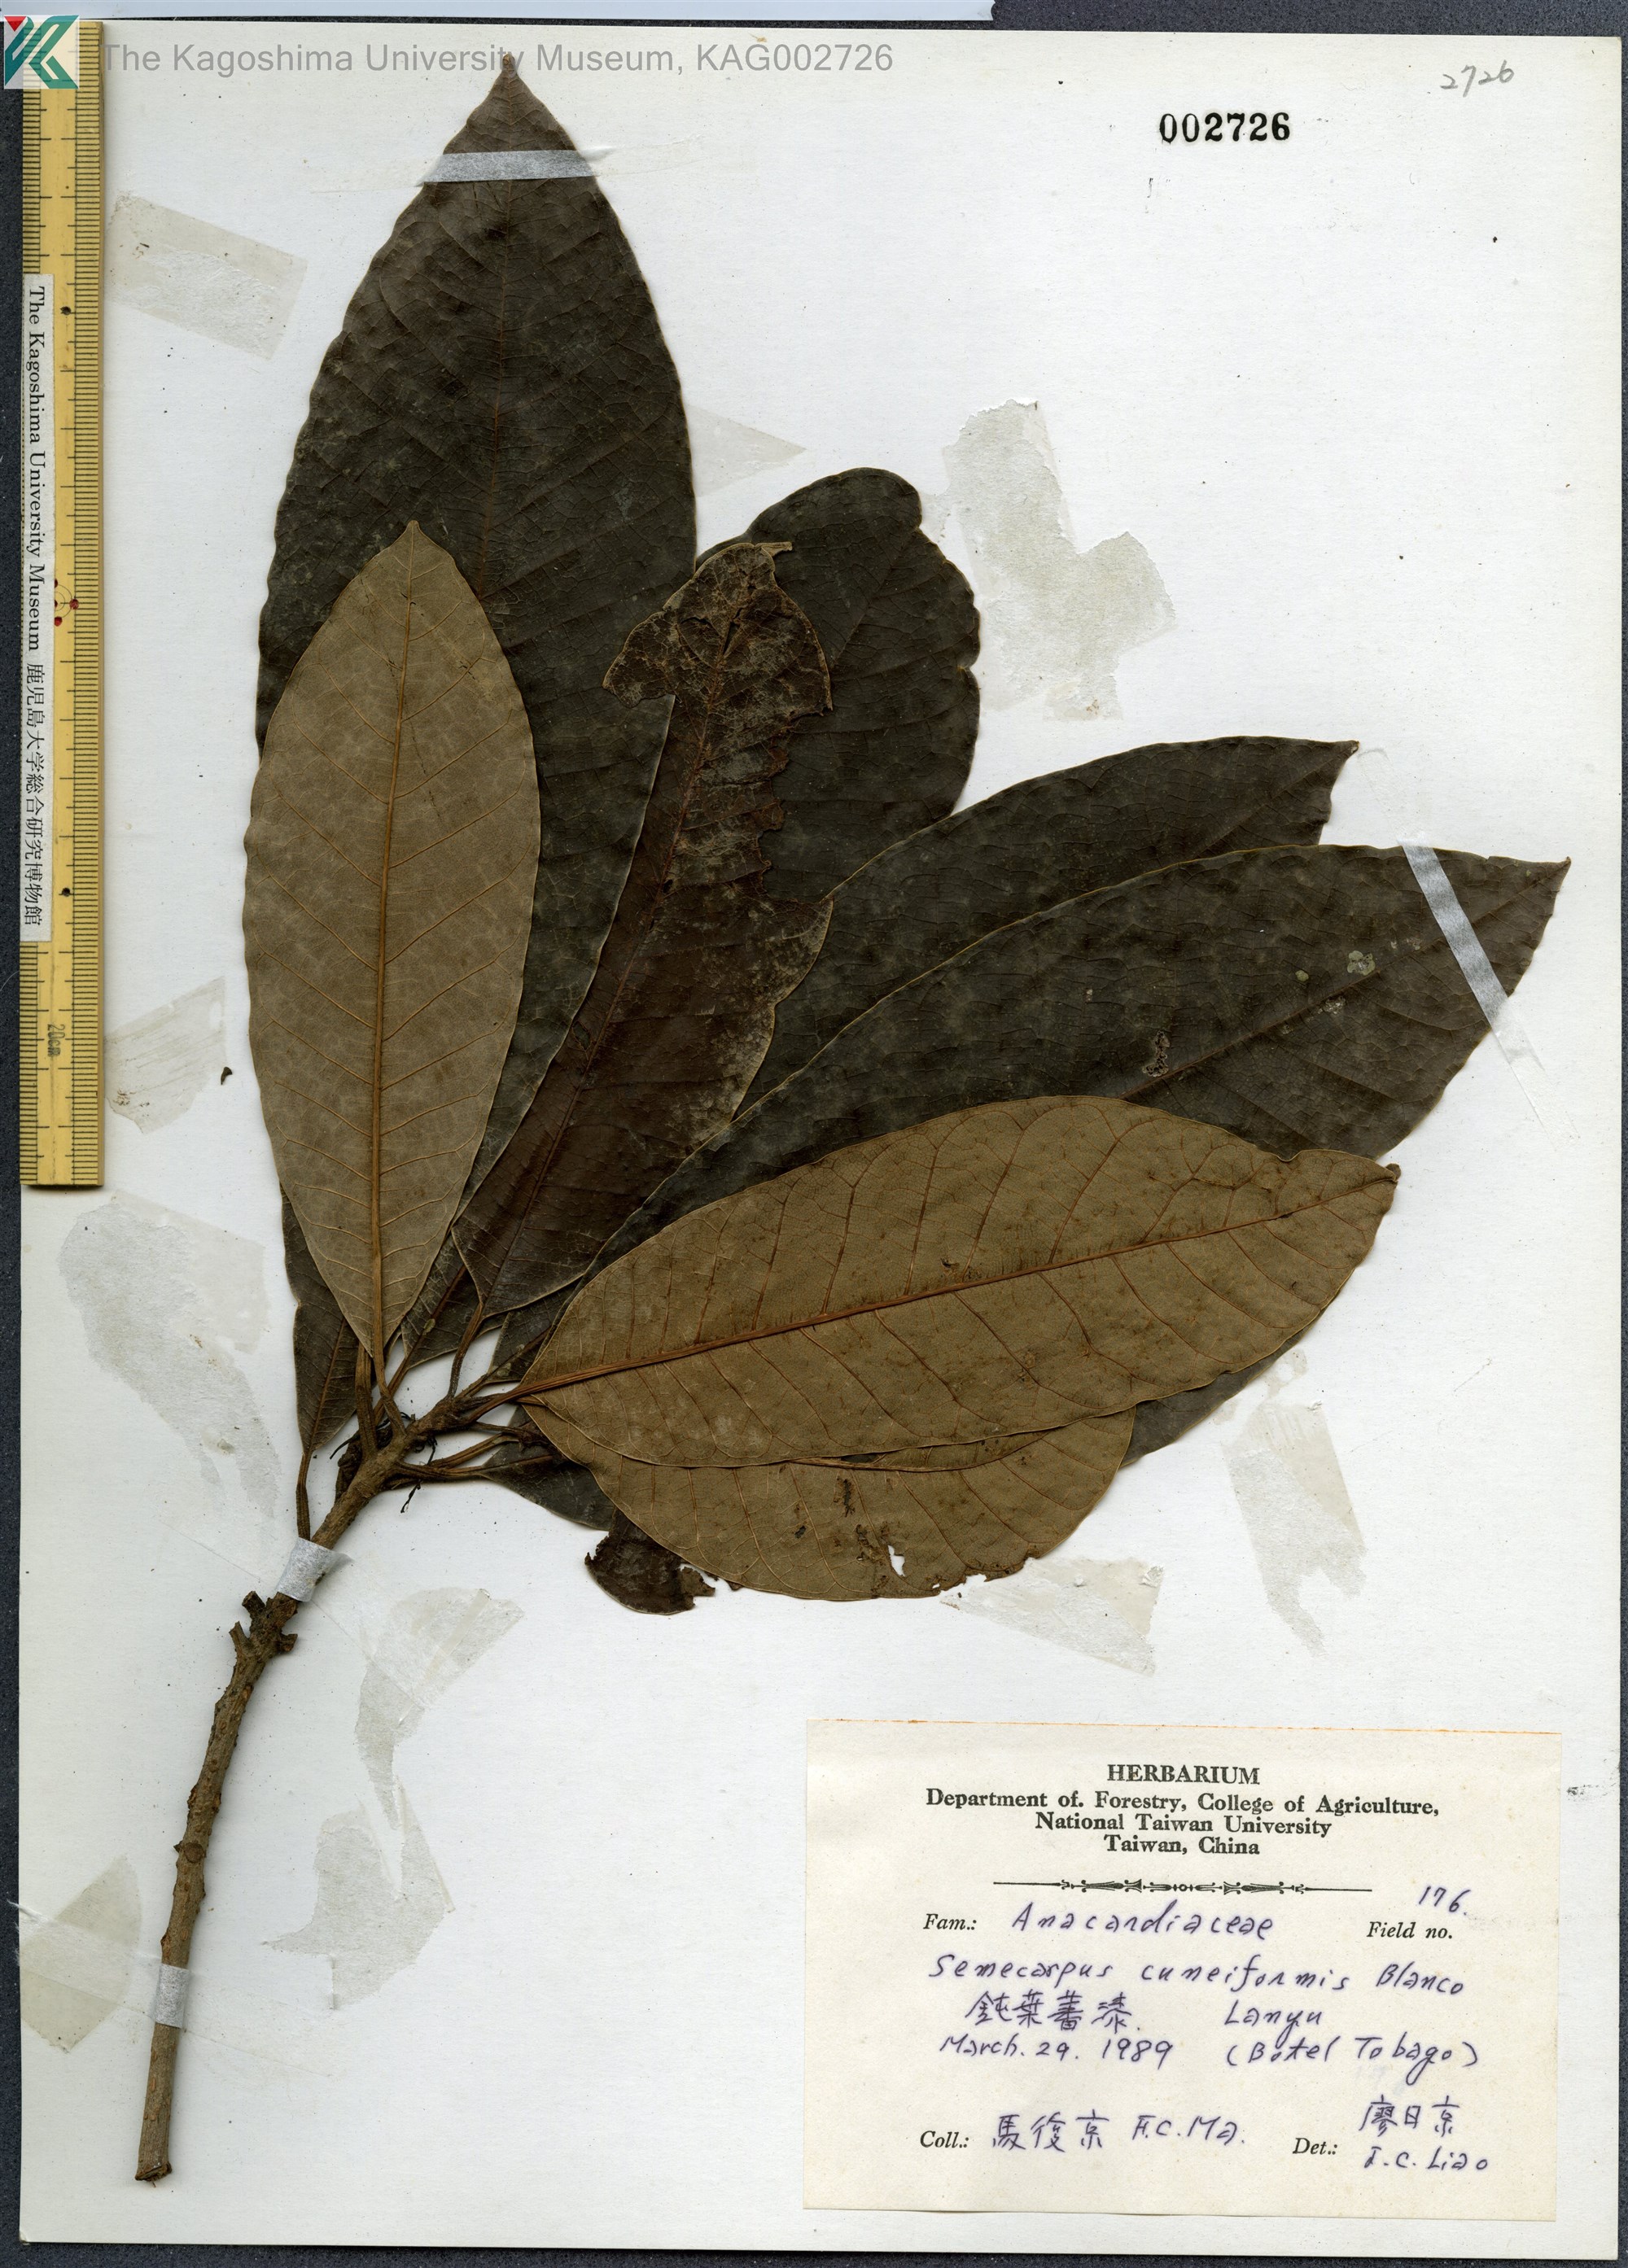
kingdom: Plantae
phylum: Tracheophyta
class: Magnoliopsida
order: Sapindales
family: Anacardiaceae
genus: Semecarpus
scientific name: Semecarpus cuneiformis
